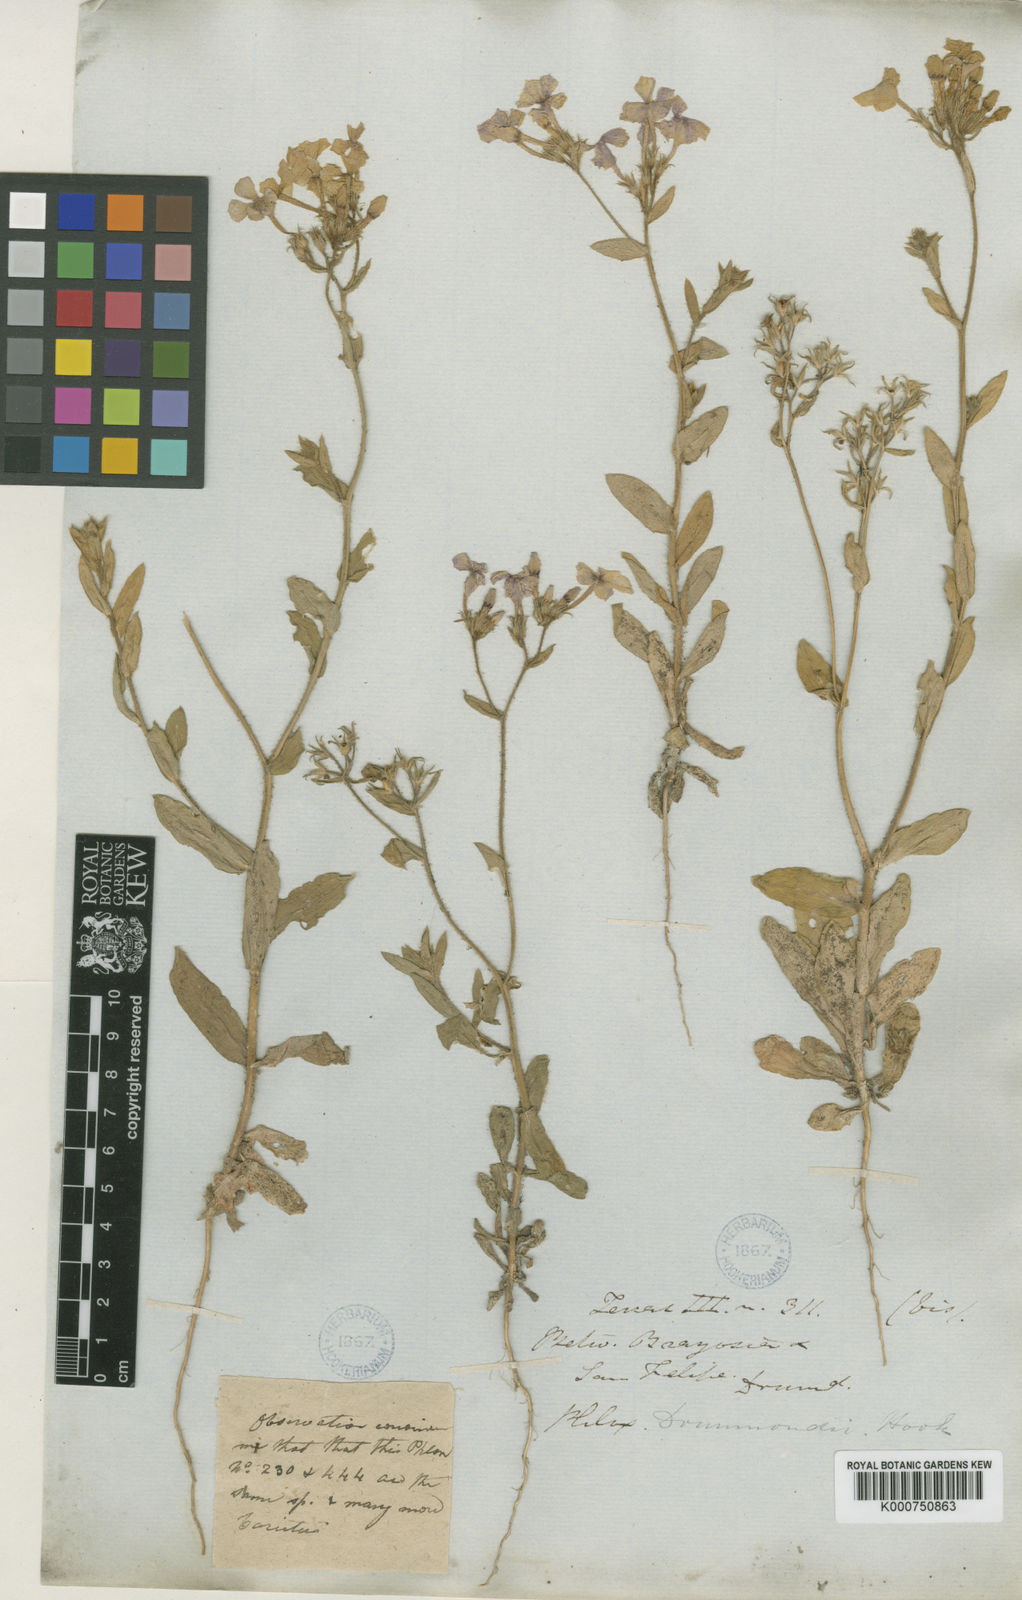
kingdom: Plantae
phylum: Tracheophyta
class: Magnoliopsida
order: Ericales
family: Polemoniaceae
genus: Phlox
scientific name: Phlox drummondii
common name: Drummond's phlox
